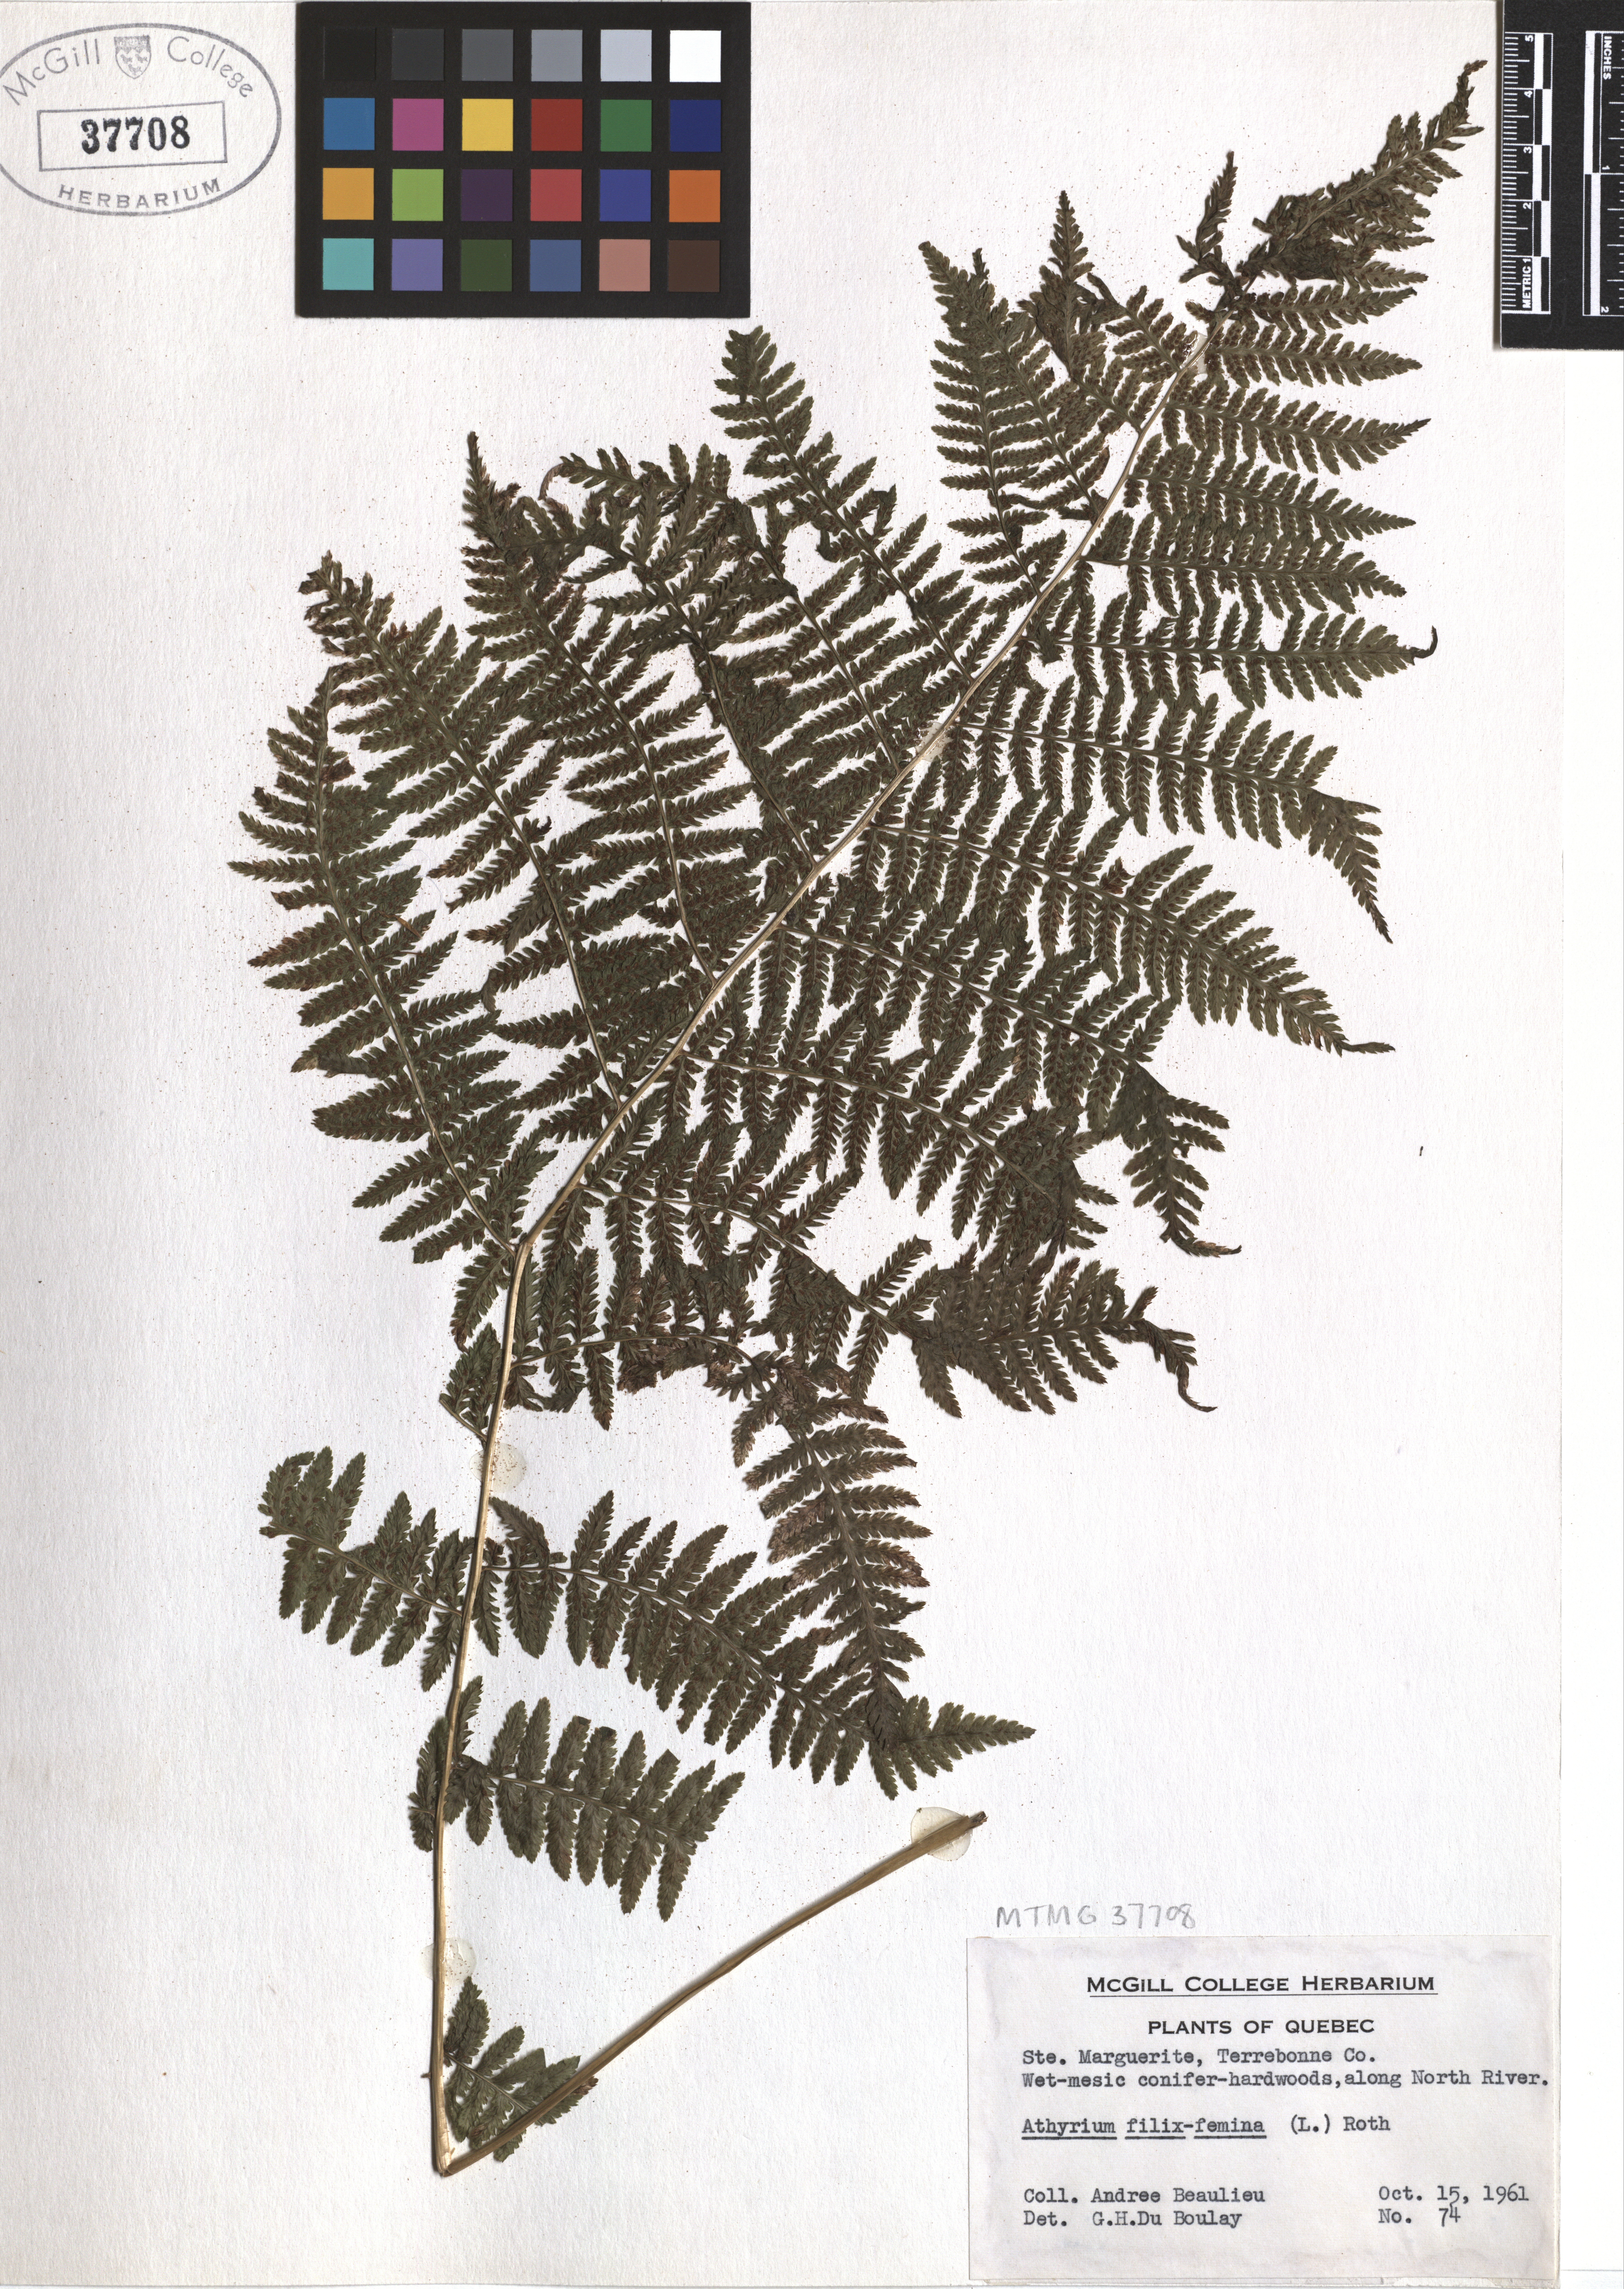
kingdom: Plantae
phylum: Tracheophyta
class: Polypodiopsida
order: Polypodiales
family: Athyriaceae
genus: Athyrium
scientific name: Athyrium filix-femina
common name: Lady fern
